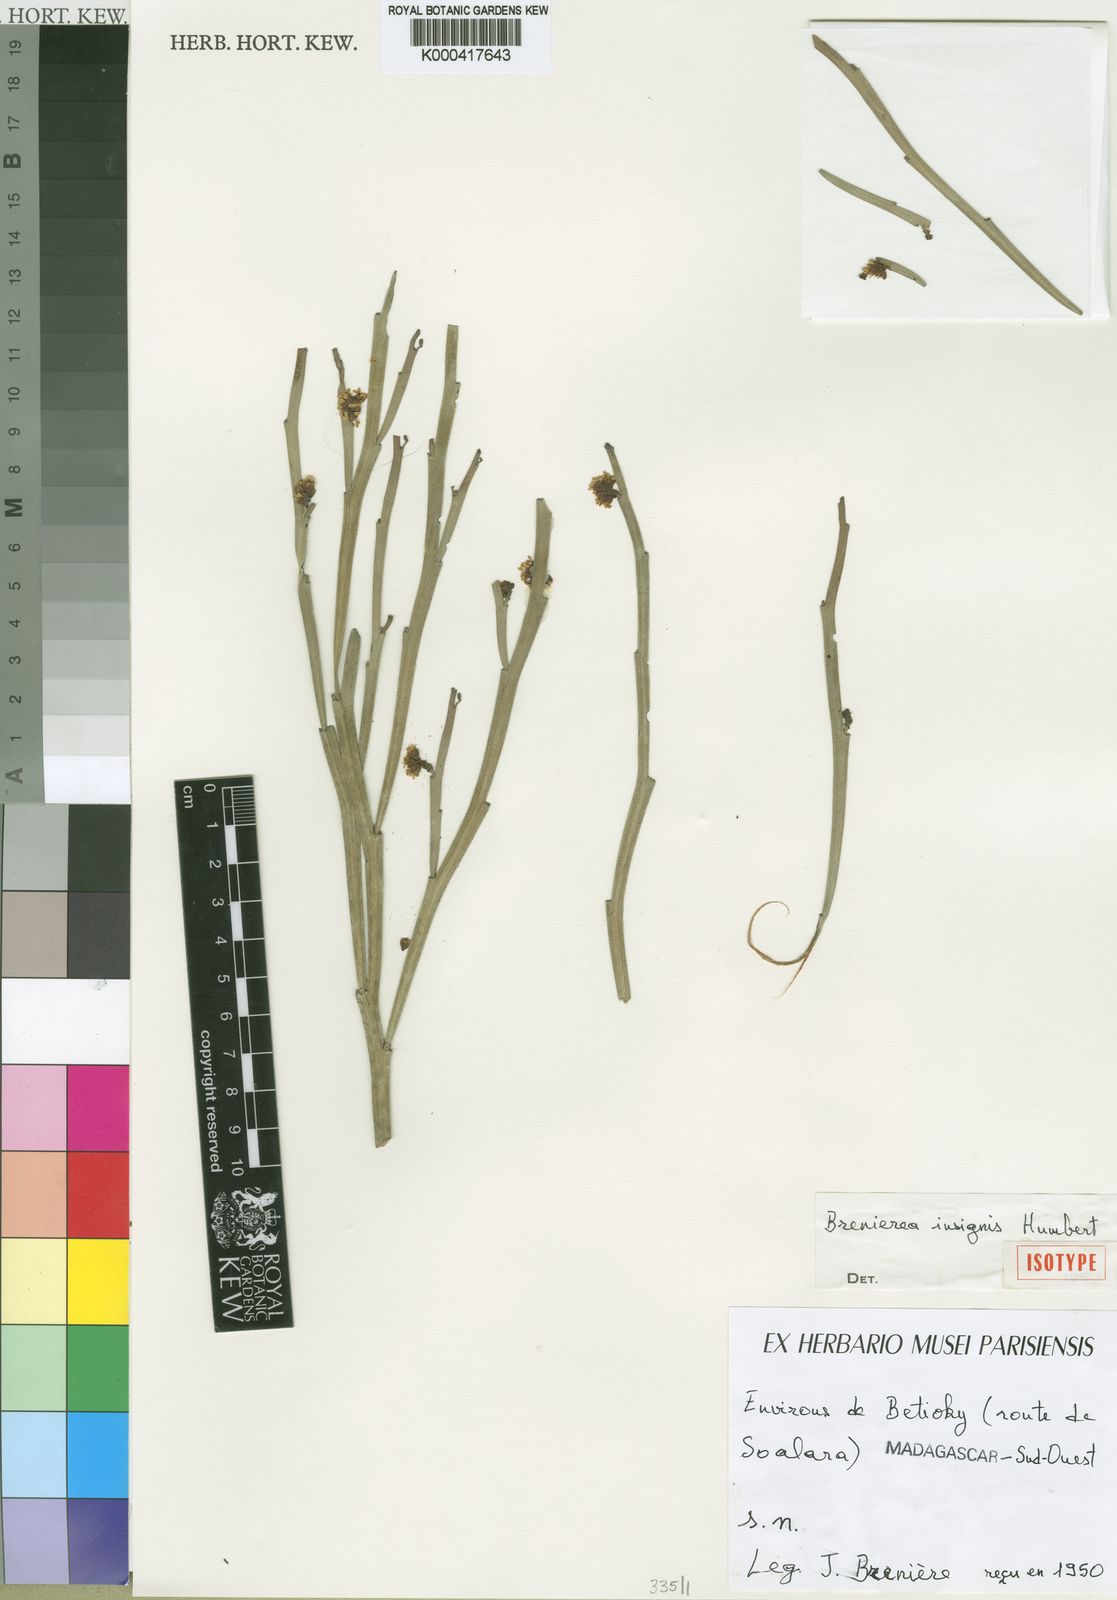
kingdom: Plantae
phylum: Tracheophyta
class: Magnoliopsida
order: Fabales
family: Fabaceae
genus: Brenierea
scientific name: Brenierea insignis
